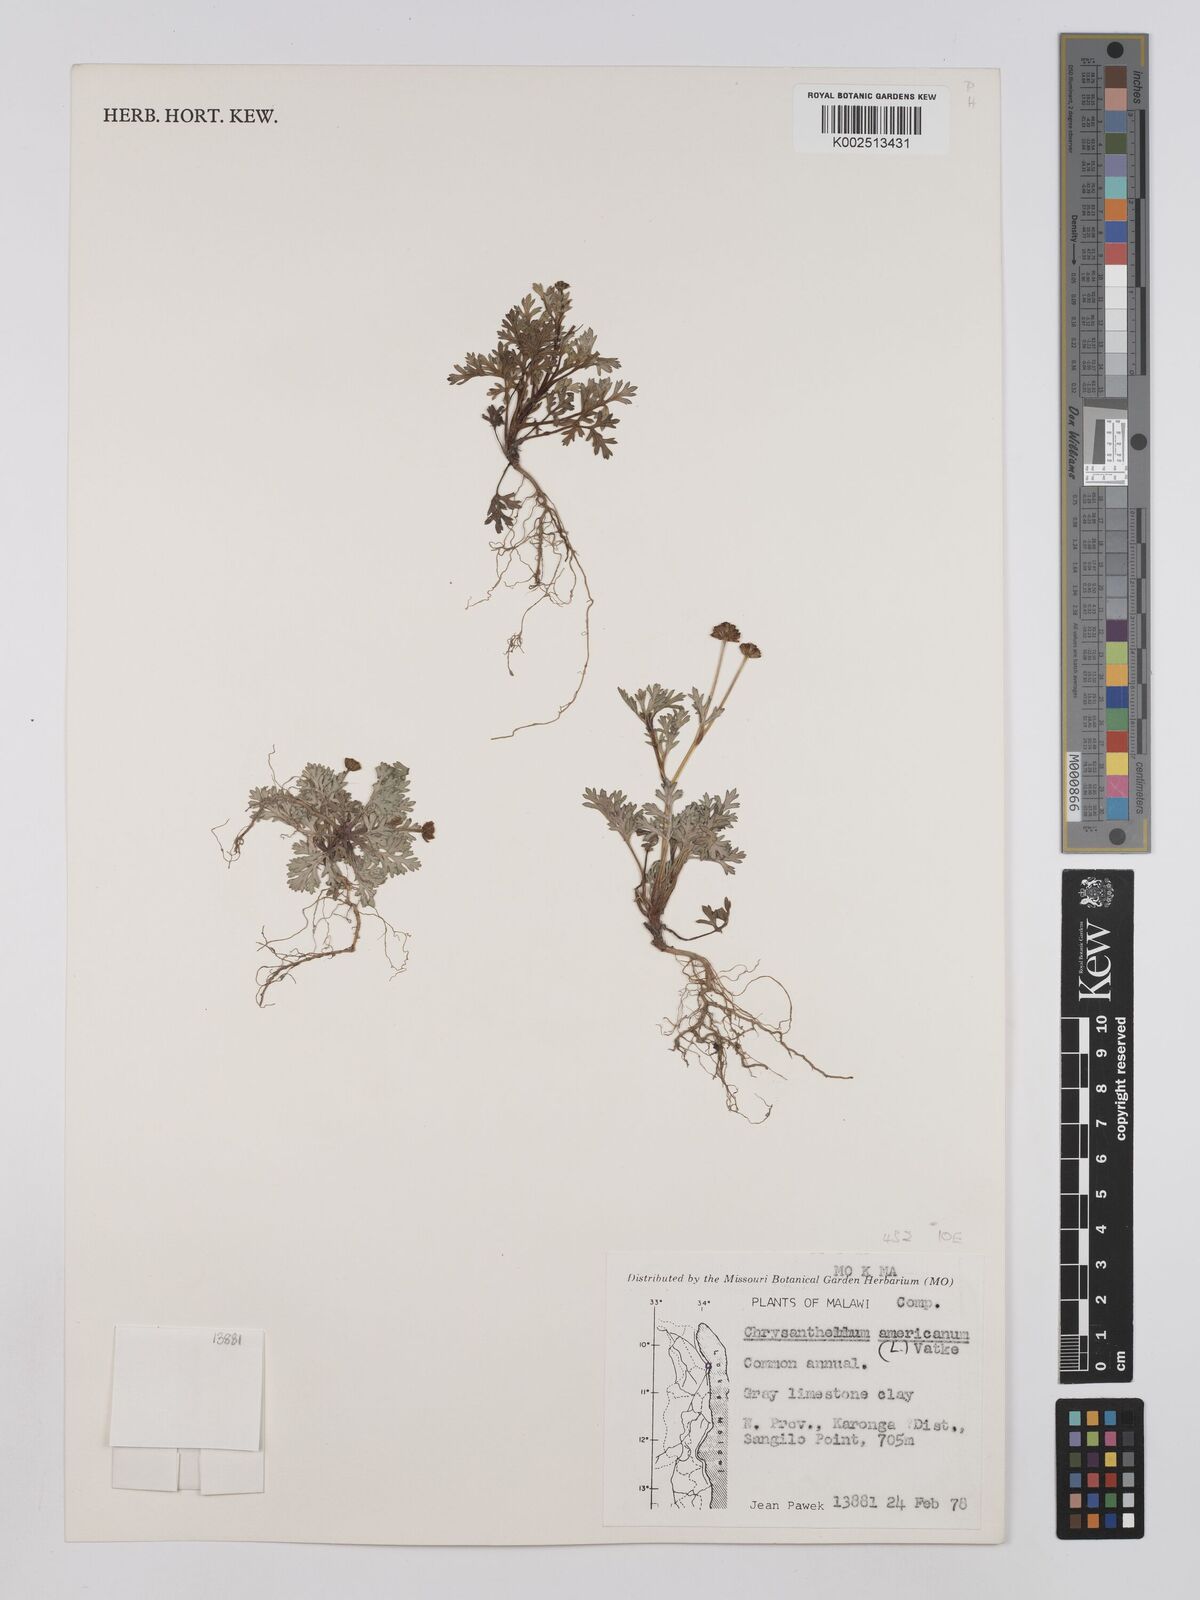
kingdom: Plantae
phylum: Tracheophyta
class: Magnoliopsida
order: Asterales
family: Asteraceae
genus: Chrysanthellum
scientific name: Chrysanthellum indicum
